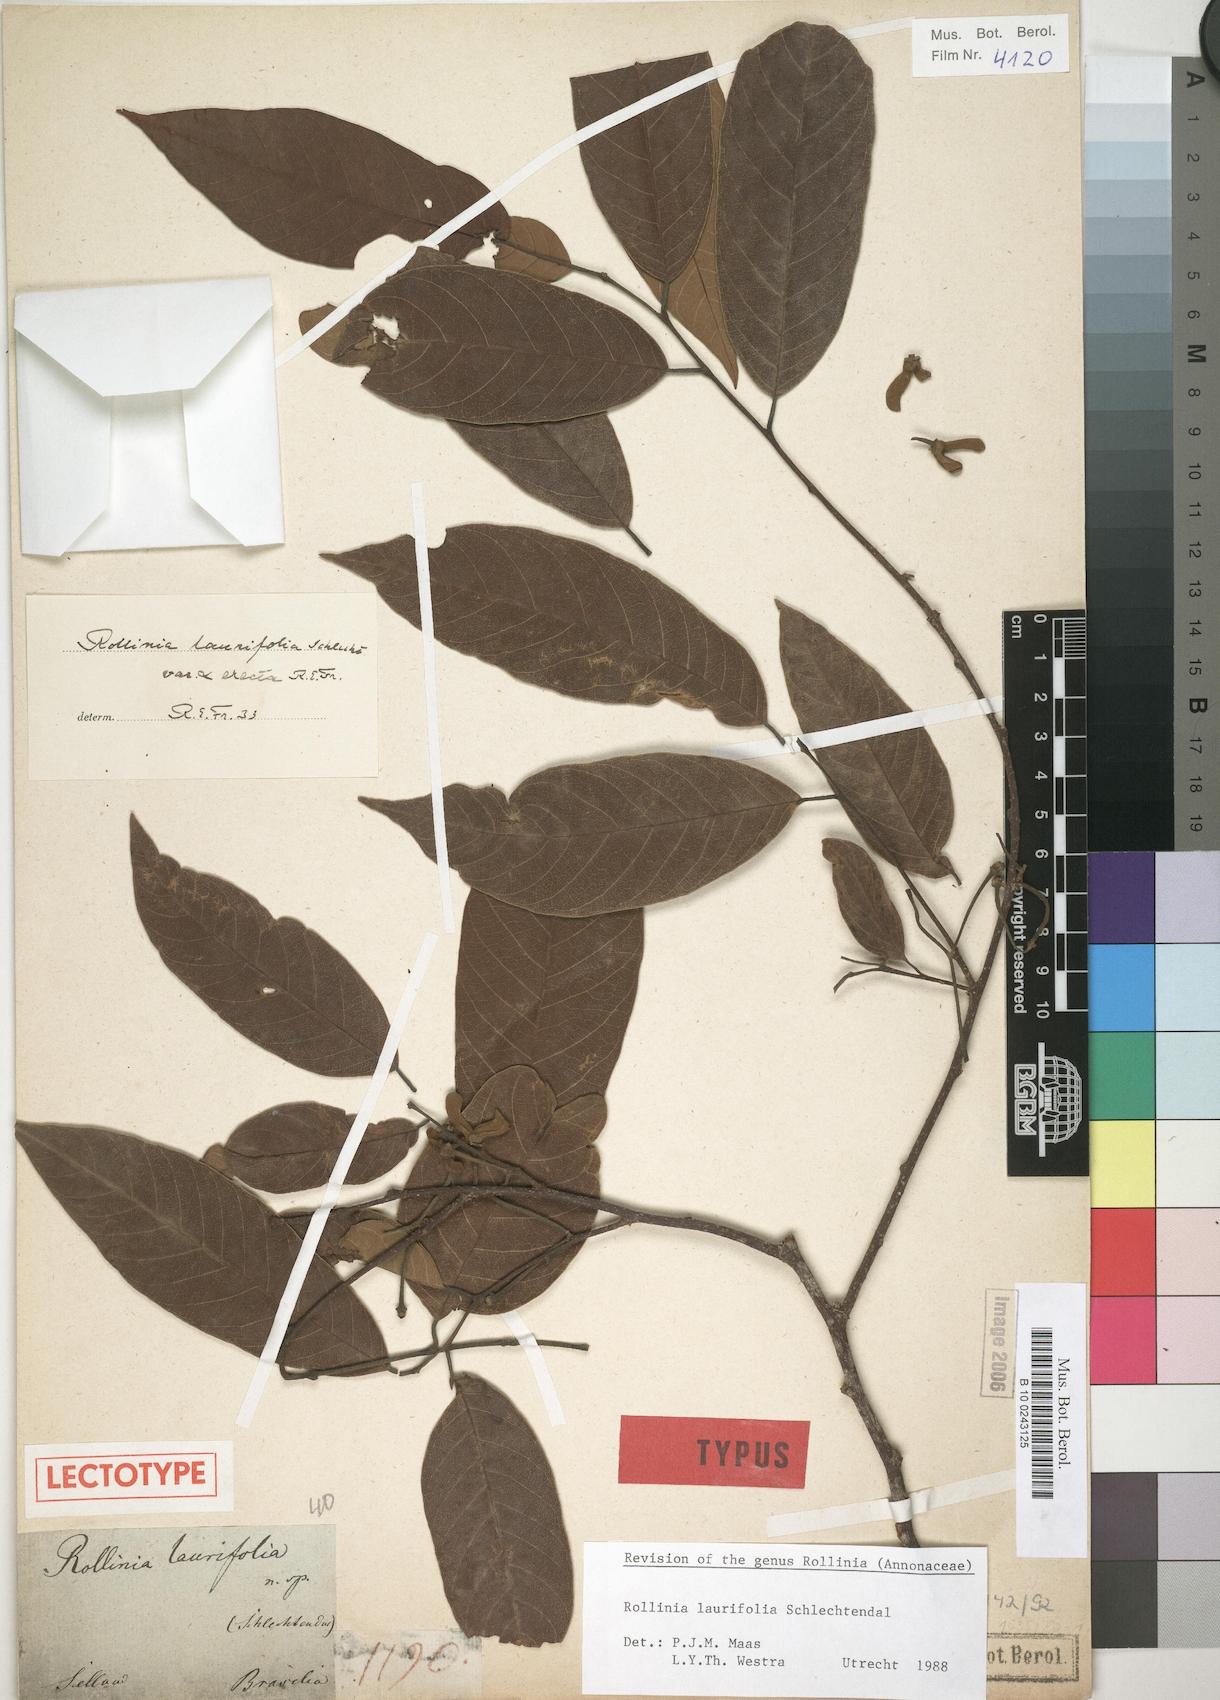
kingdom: Plantae
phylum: Tracheophyta
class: Magnoliopsida
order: Magnoliales
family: Annonaceae
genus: Annona
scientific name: Annona neolaurifolia
